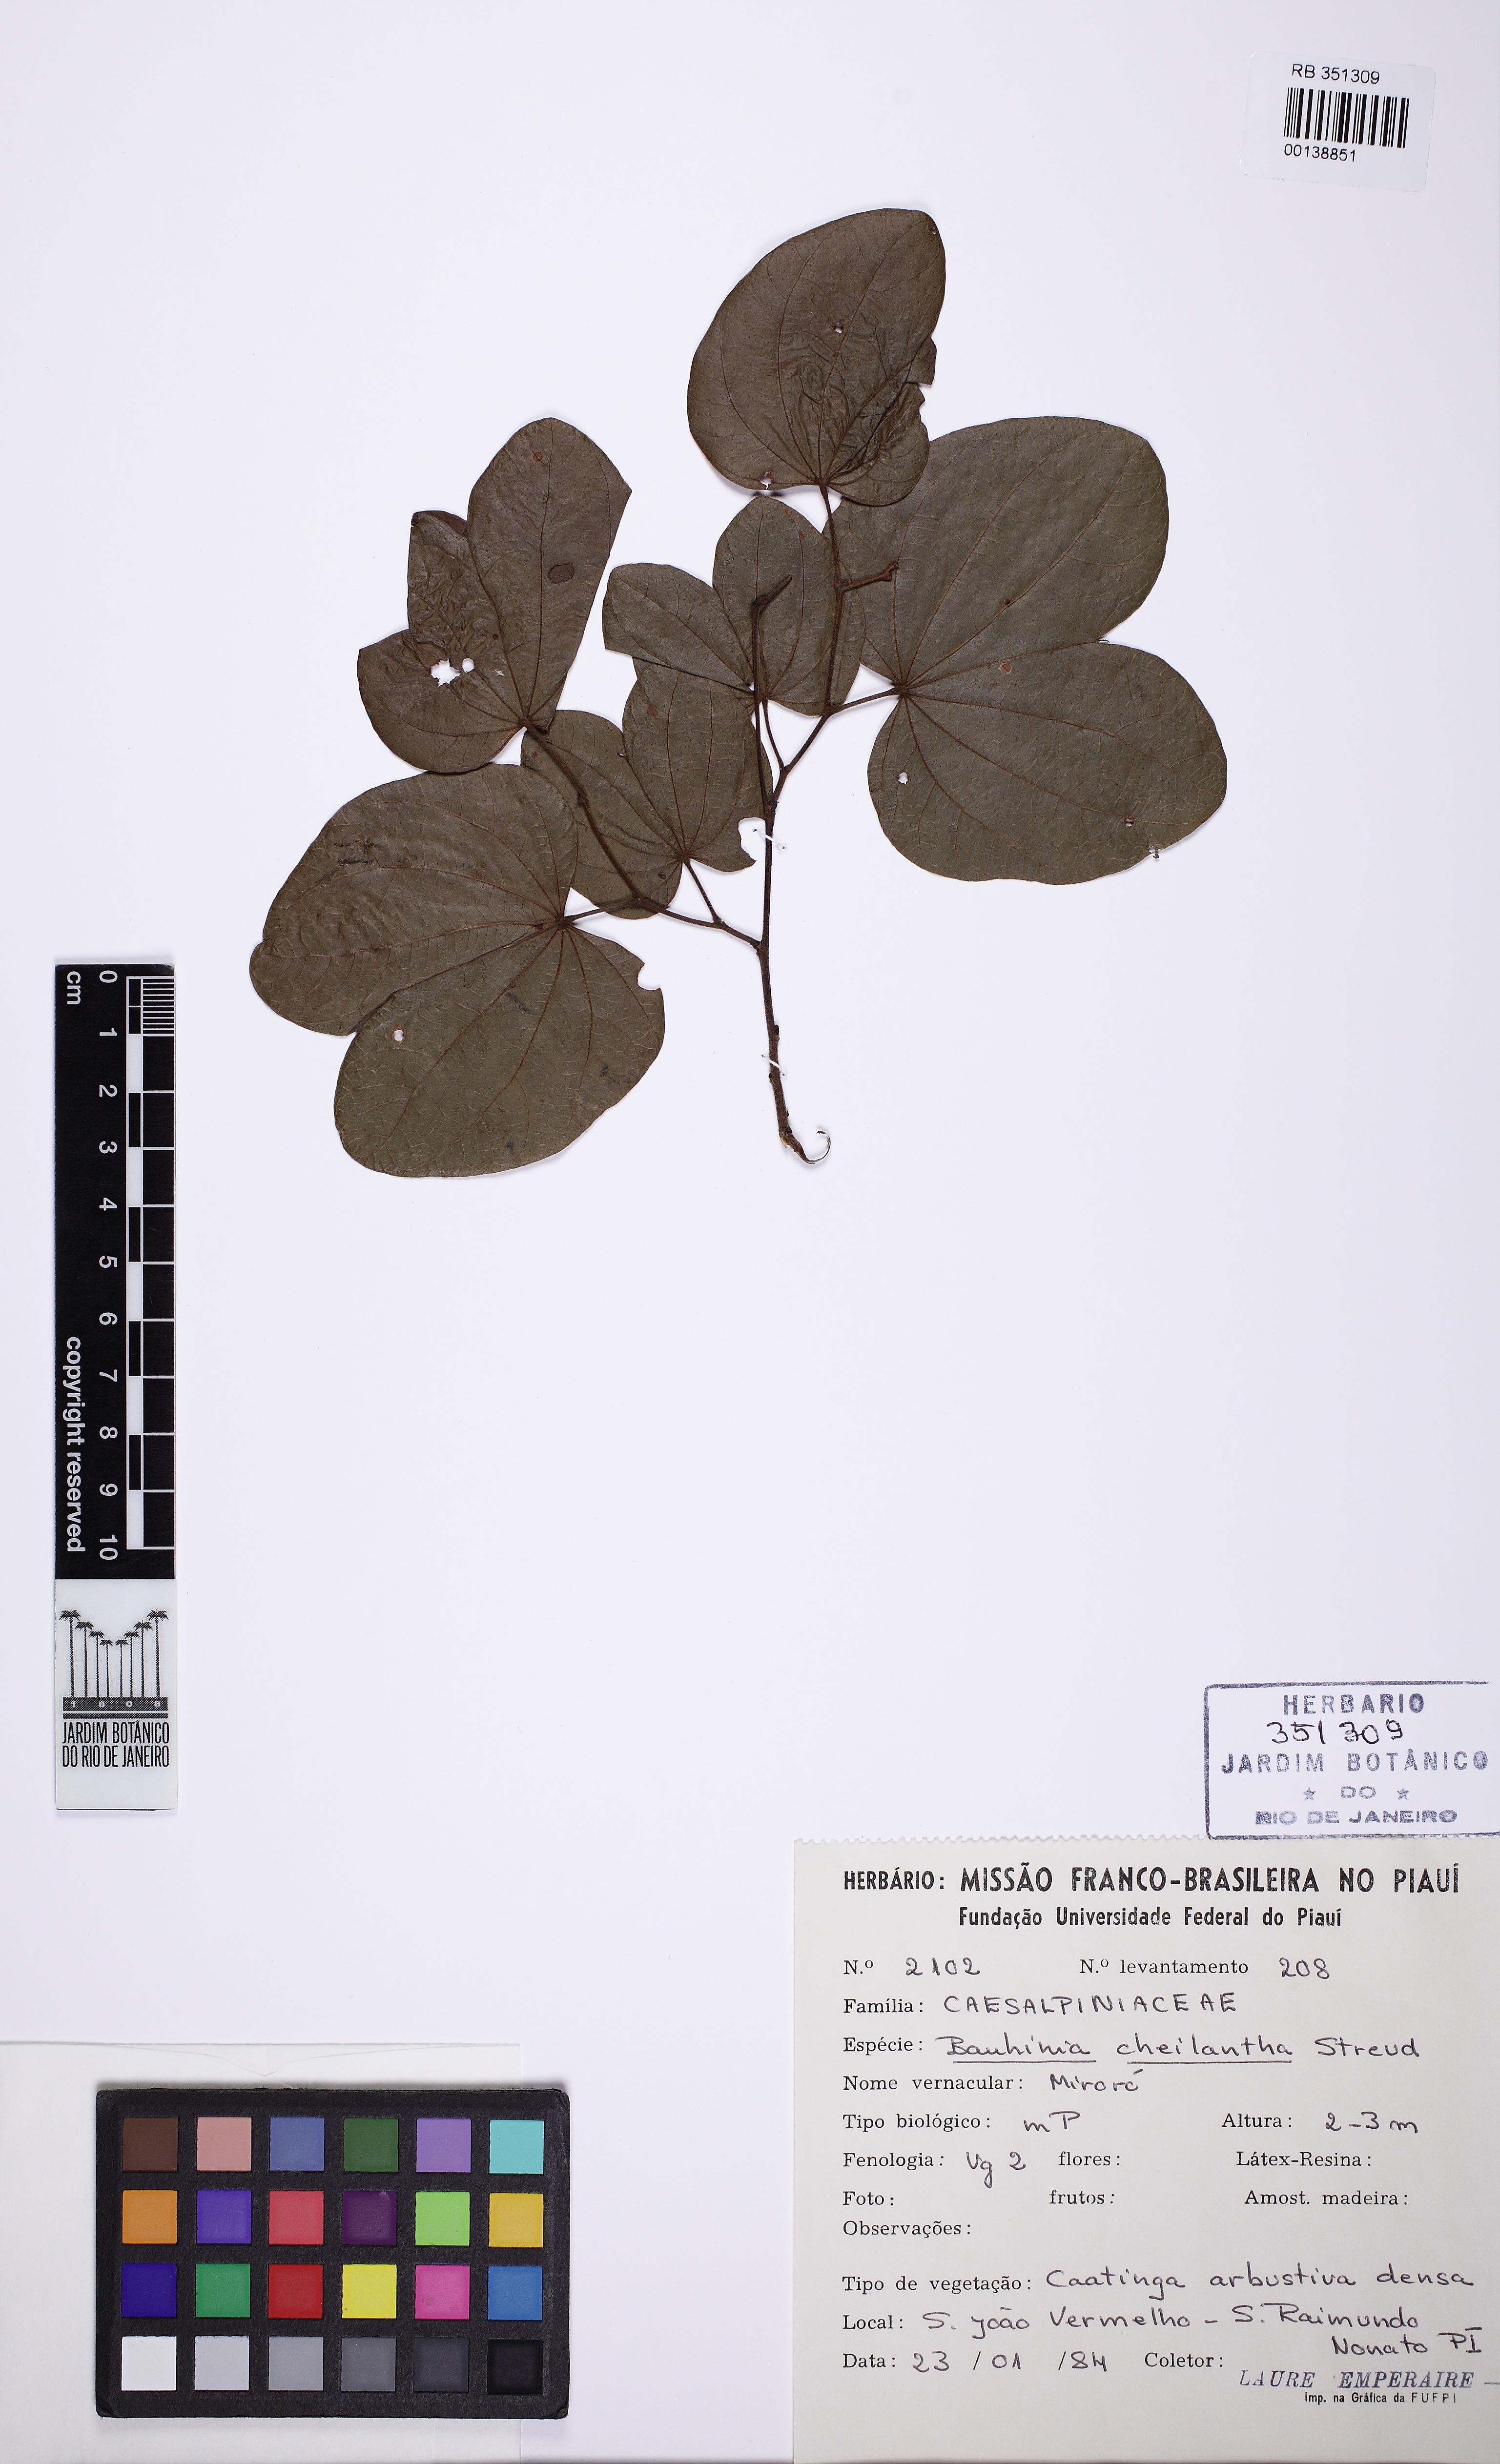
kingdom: Plantae
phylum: Tracheophyta
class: Magnoliopsida
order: Fabales
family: Fabaceae
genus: Bauhinia
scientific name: Bauhinia cheilantha
